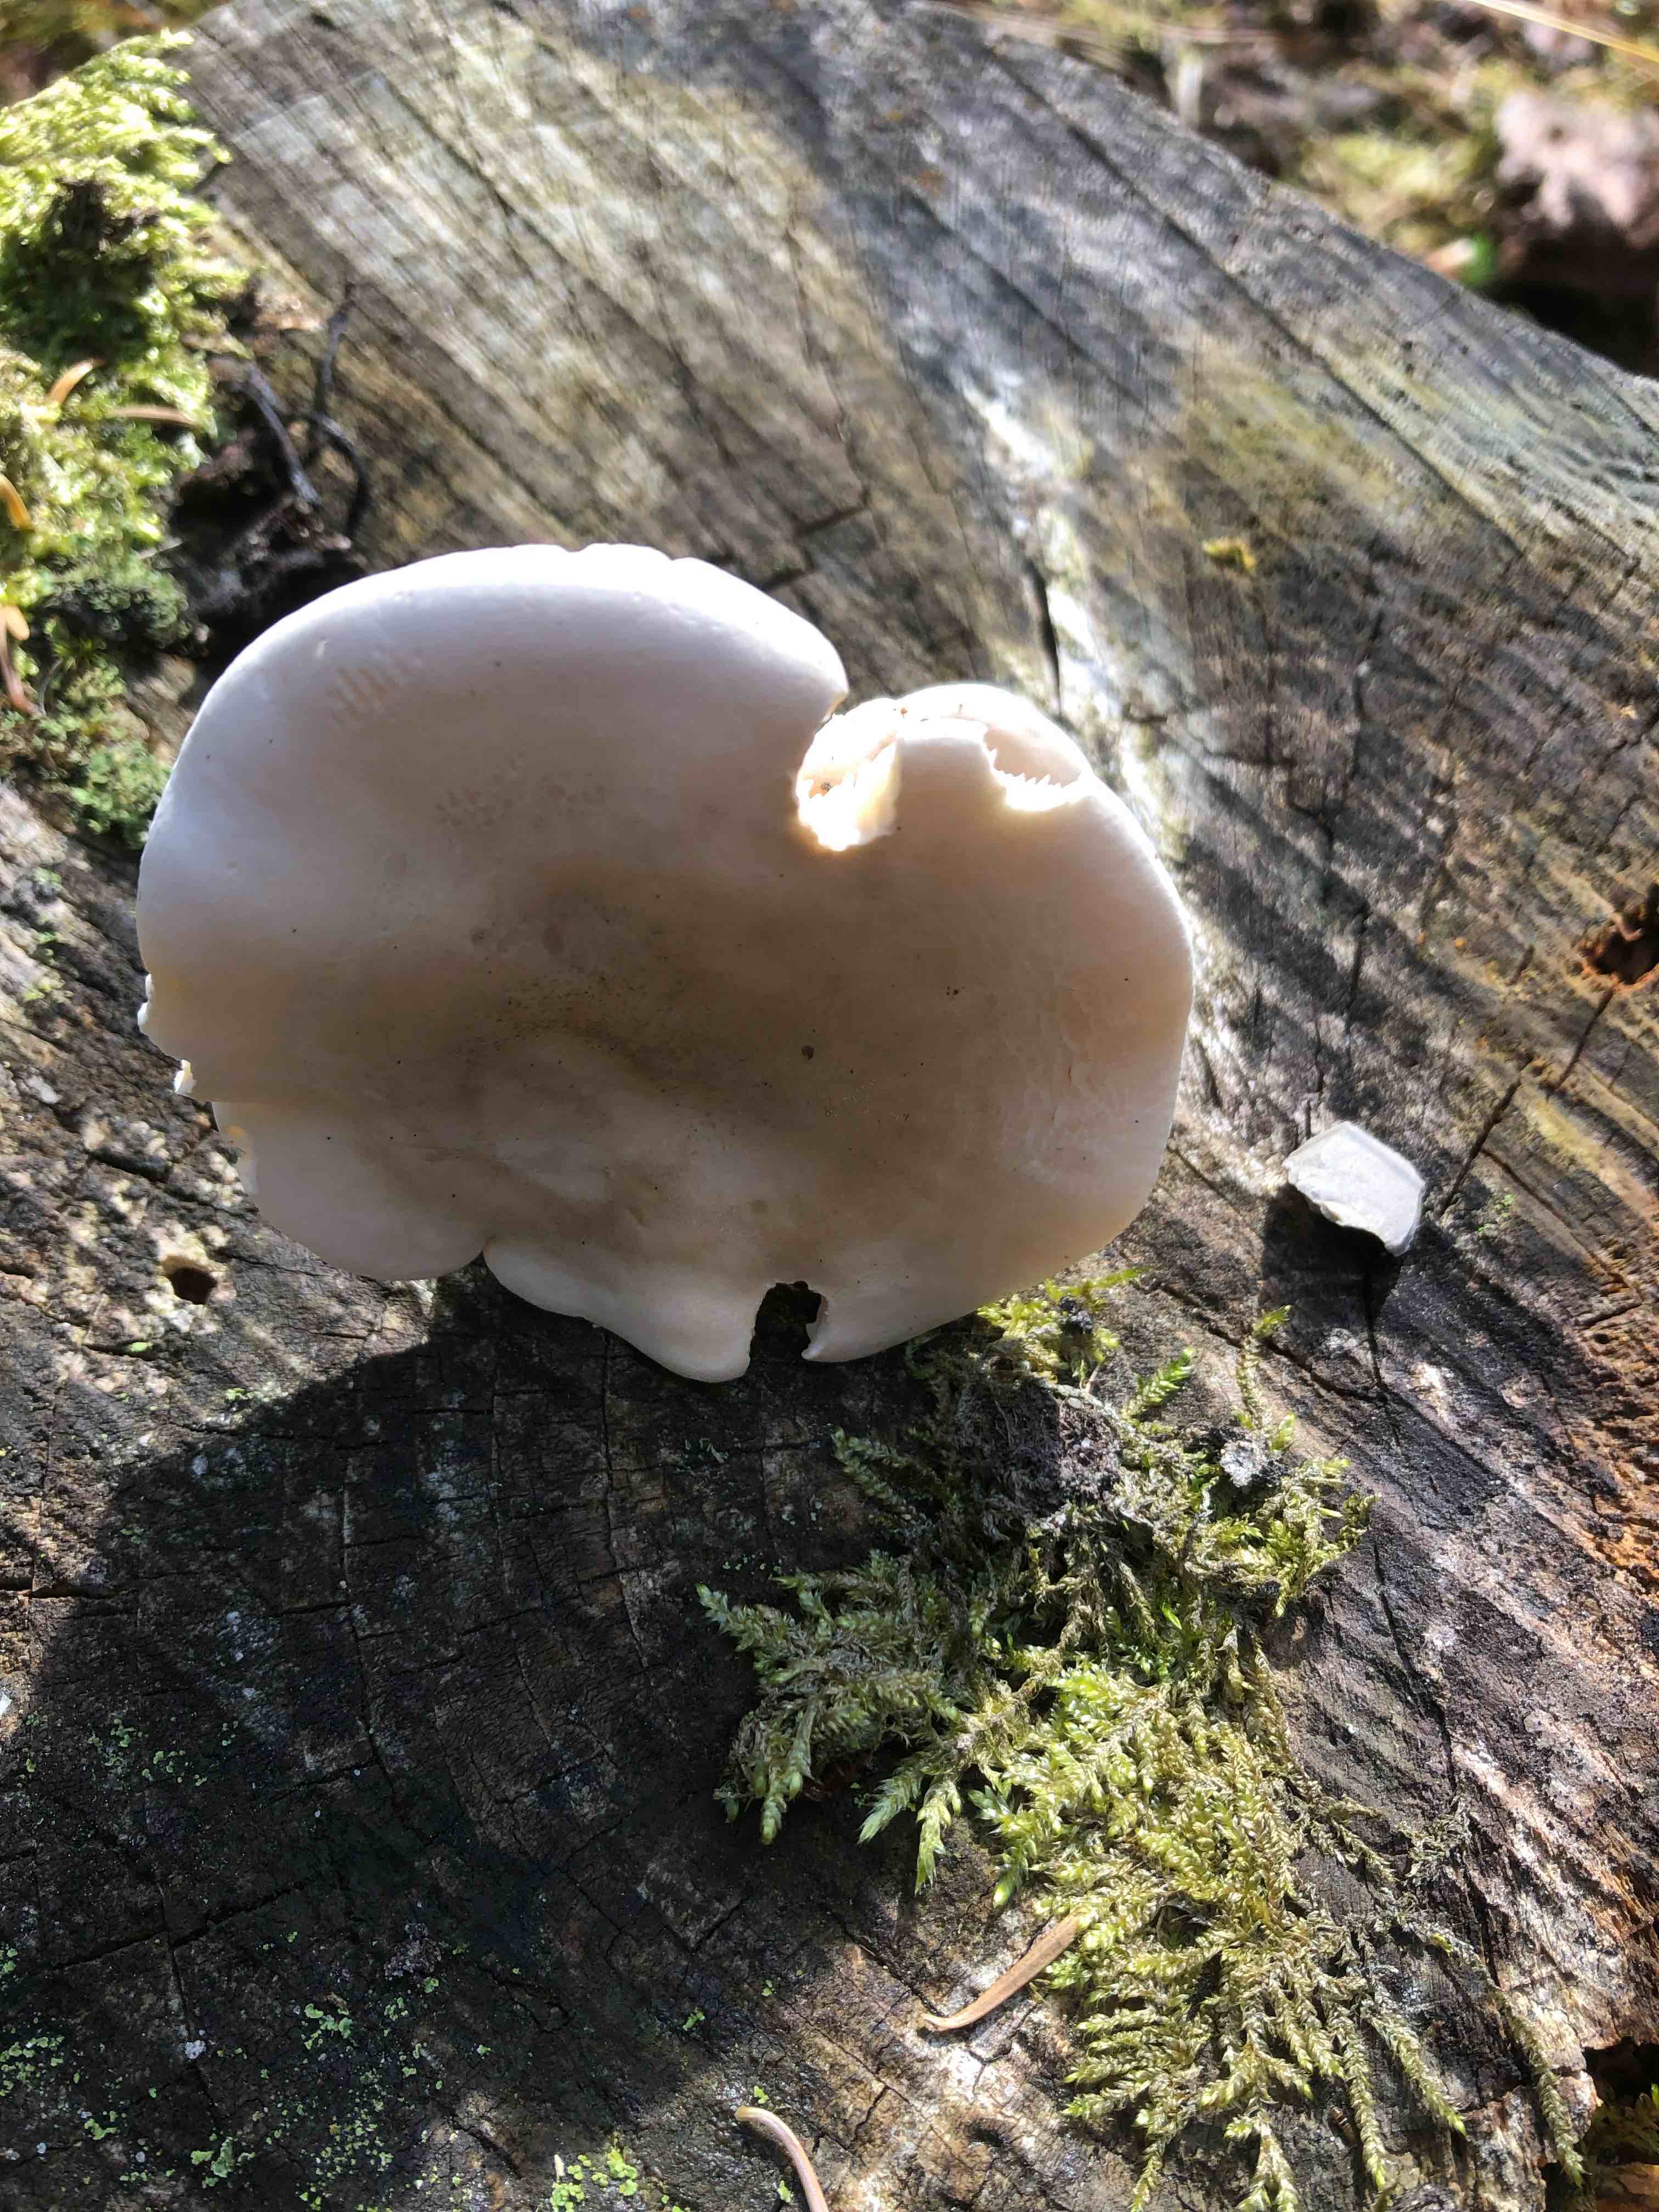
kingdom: Fungi
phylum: Basidiomycota
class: Agaricomycetes
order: Agaricales
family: Entolomataceae
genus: Clitopilus
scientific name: Clitopilus prunulus
